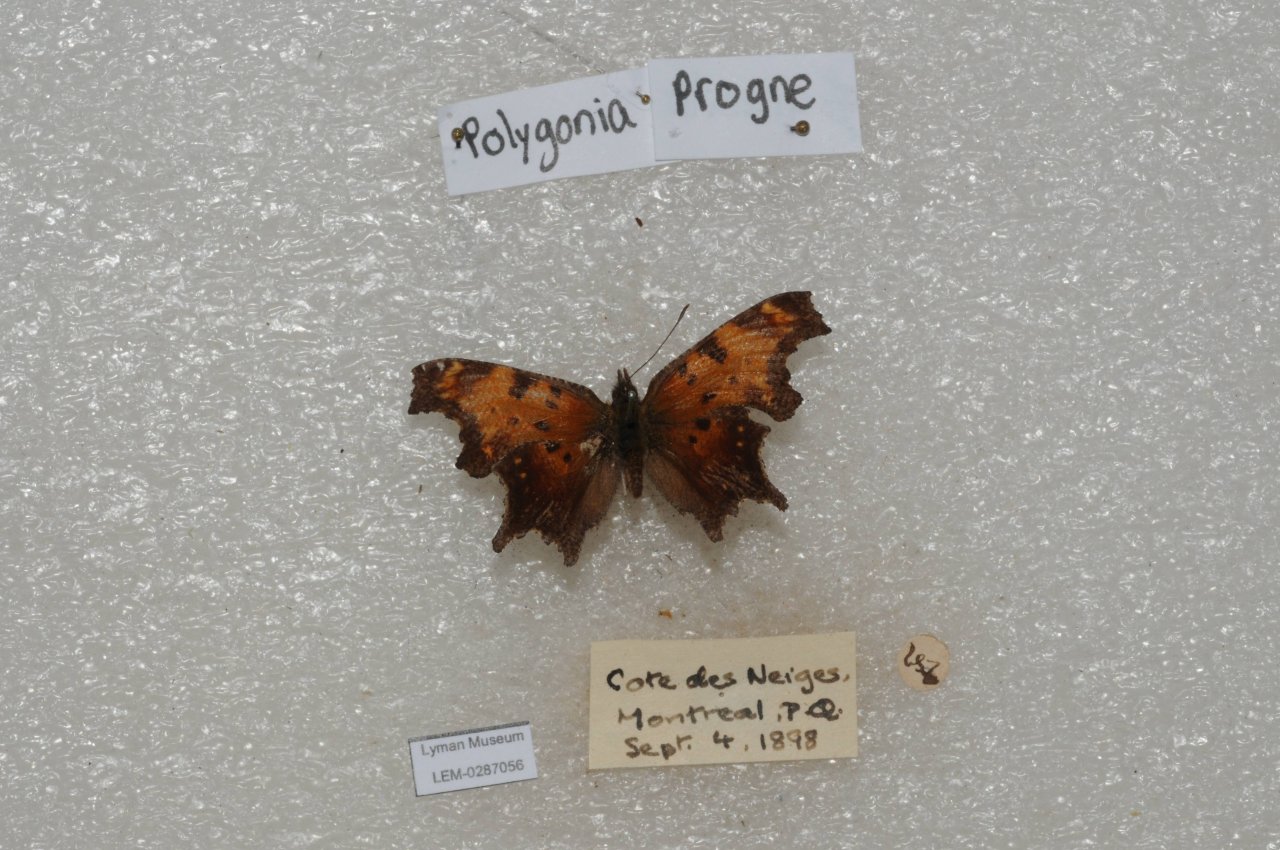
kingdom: Animalia
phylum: Arthropoda
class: Insecta
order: Lepidoptera
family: Nymphalidae
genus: Polygonia
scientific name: Polygonia progne
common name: Gray Comma
